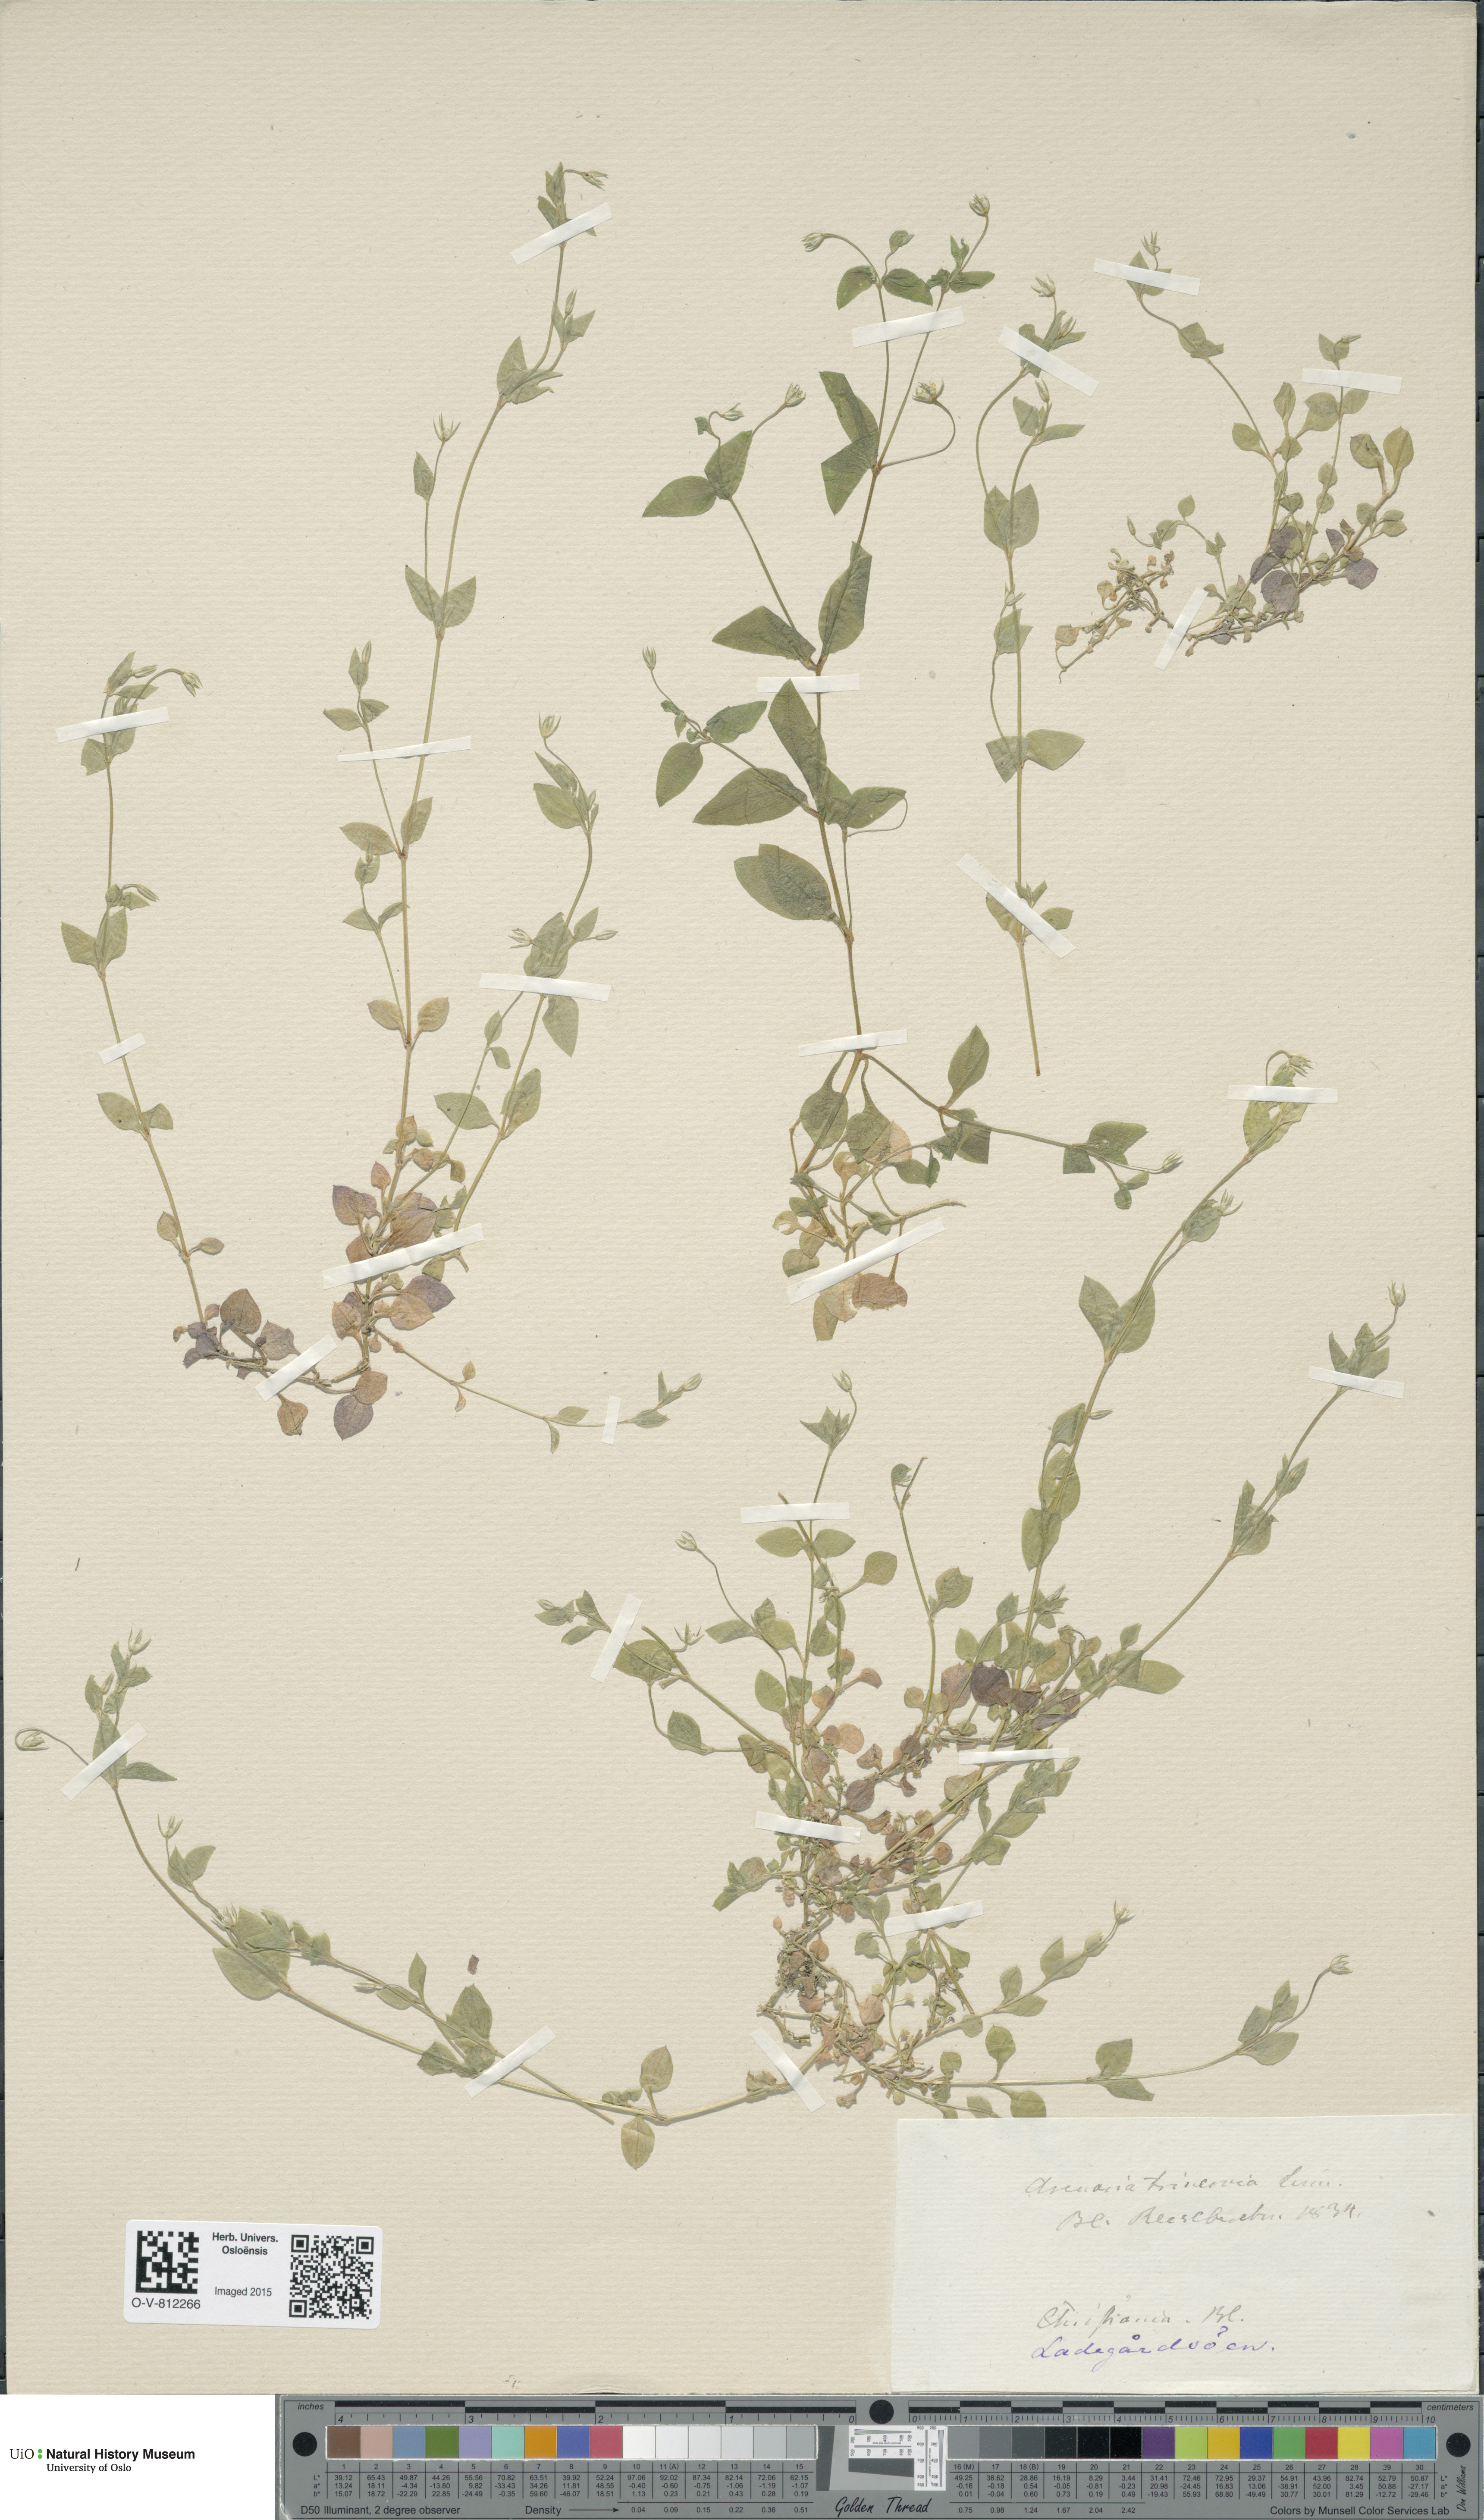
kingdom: Plantae
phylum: Tracheophyta
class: Magnoliopsida
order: Caryophyllales
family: Caryophyllaceae
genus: Moehringia
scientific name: Moehringia trinervia
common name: Three-nerved sandwort
